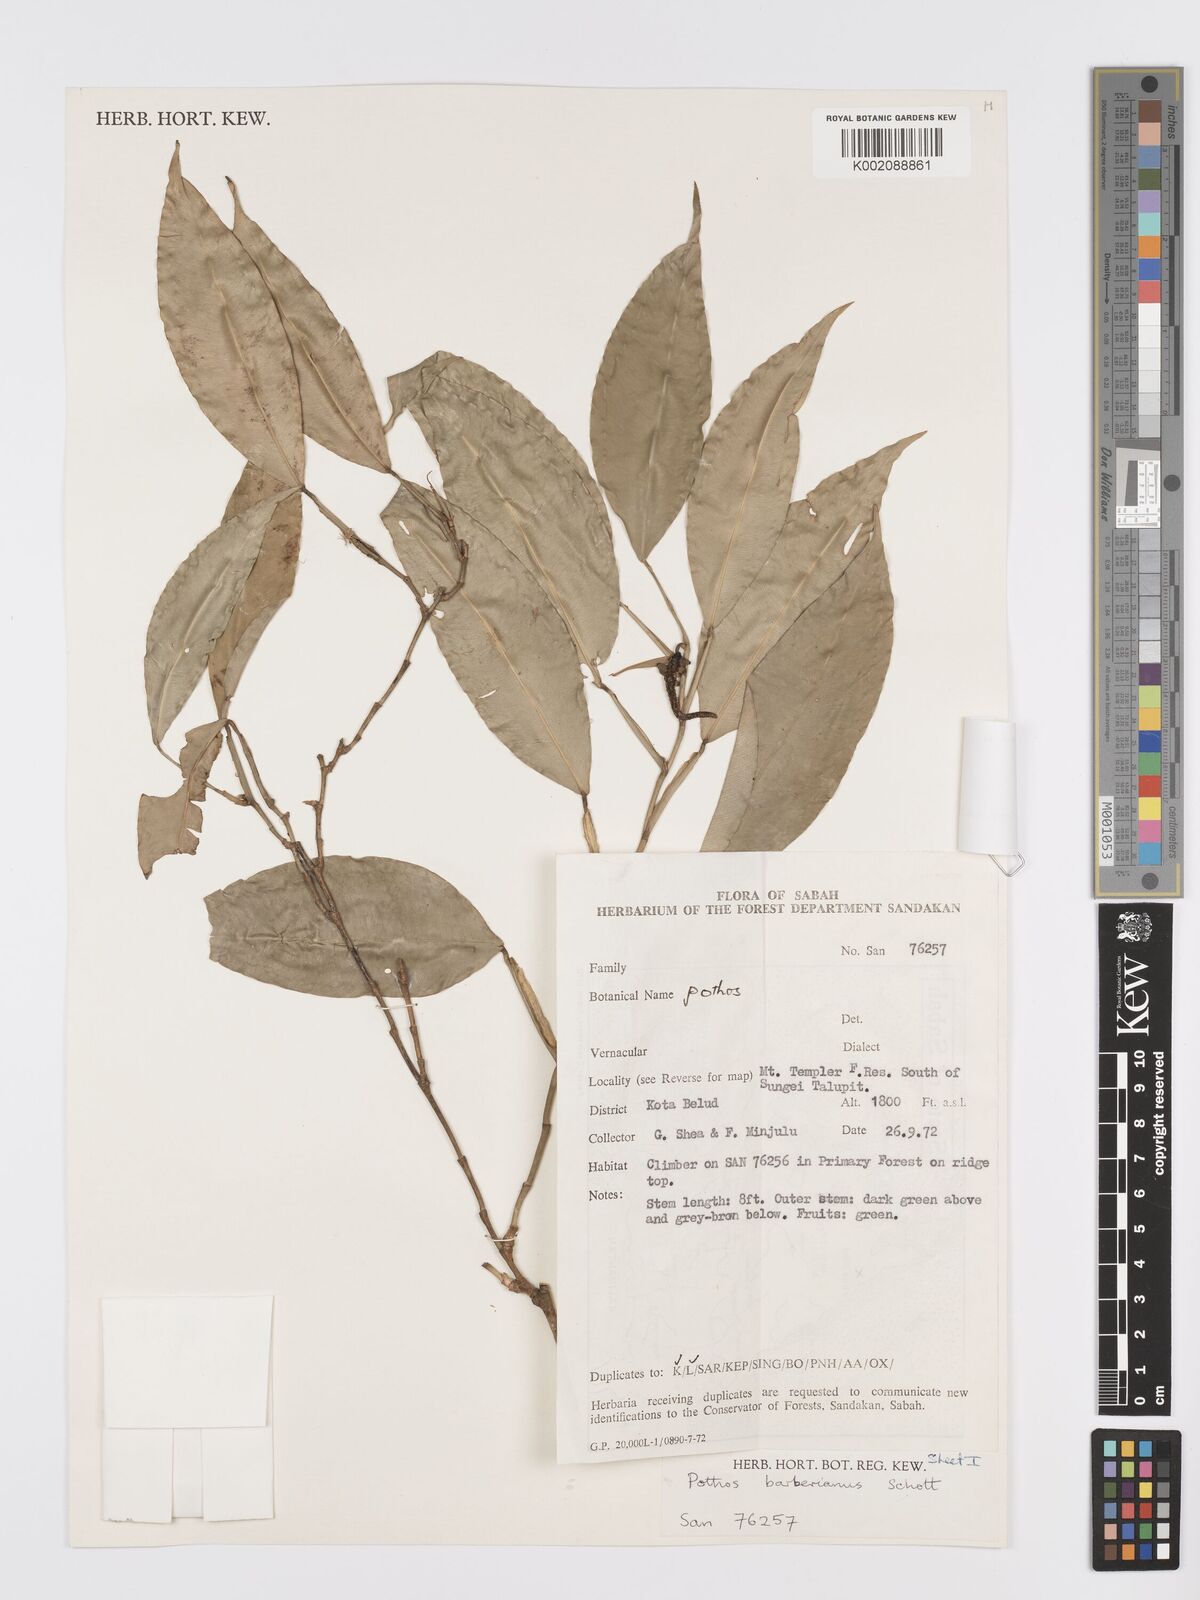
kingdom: Plantae
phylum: Tracheophyta
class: Liliopsida
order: Alismatales
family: Araceae
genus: Pothos
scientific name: Pothos barberianus
